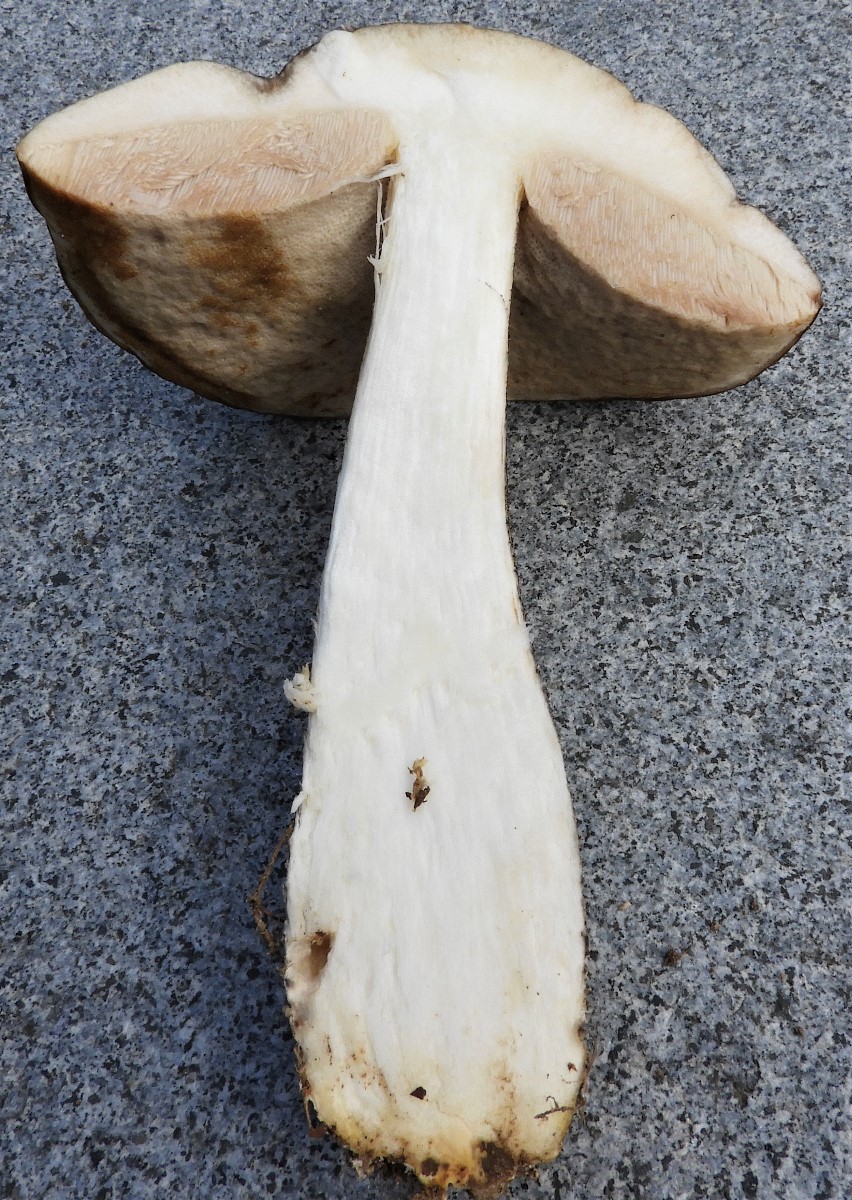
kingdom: Fungi
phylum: Basidiomycota
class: Agaricomycetes
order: Boletales
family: Boletaceae
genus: Leccinum
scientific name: Leccinum scabrum
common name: brun skælrørhat
